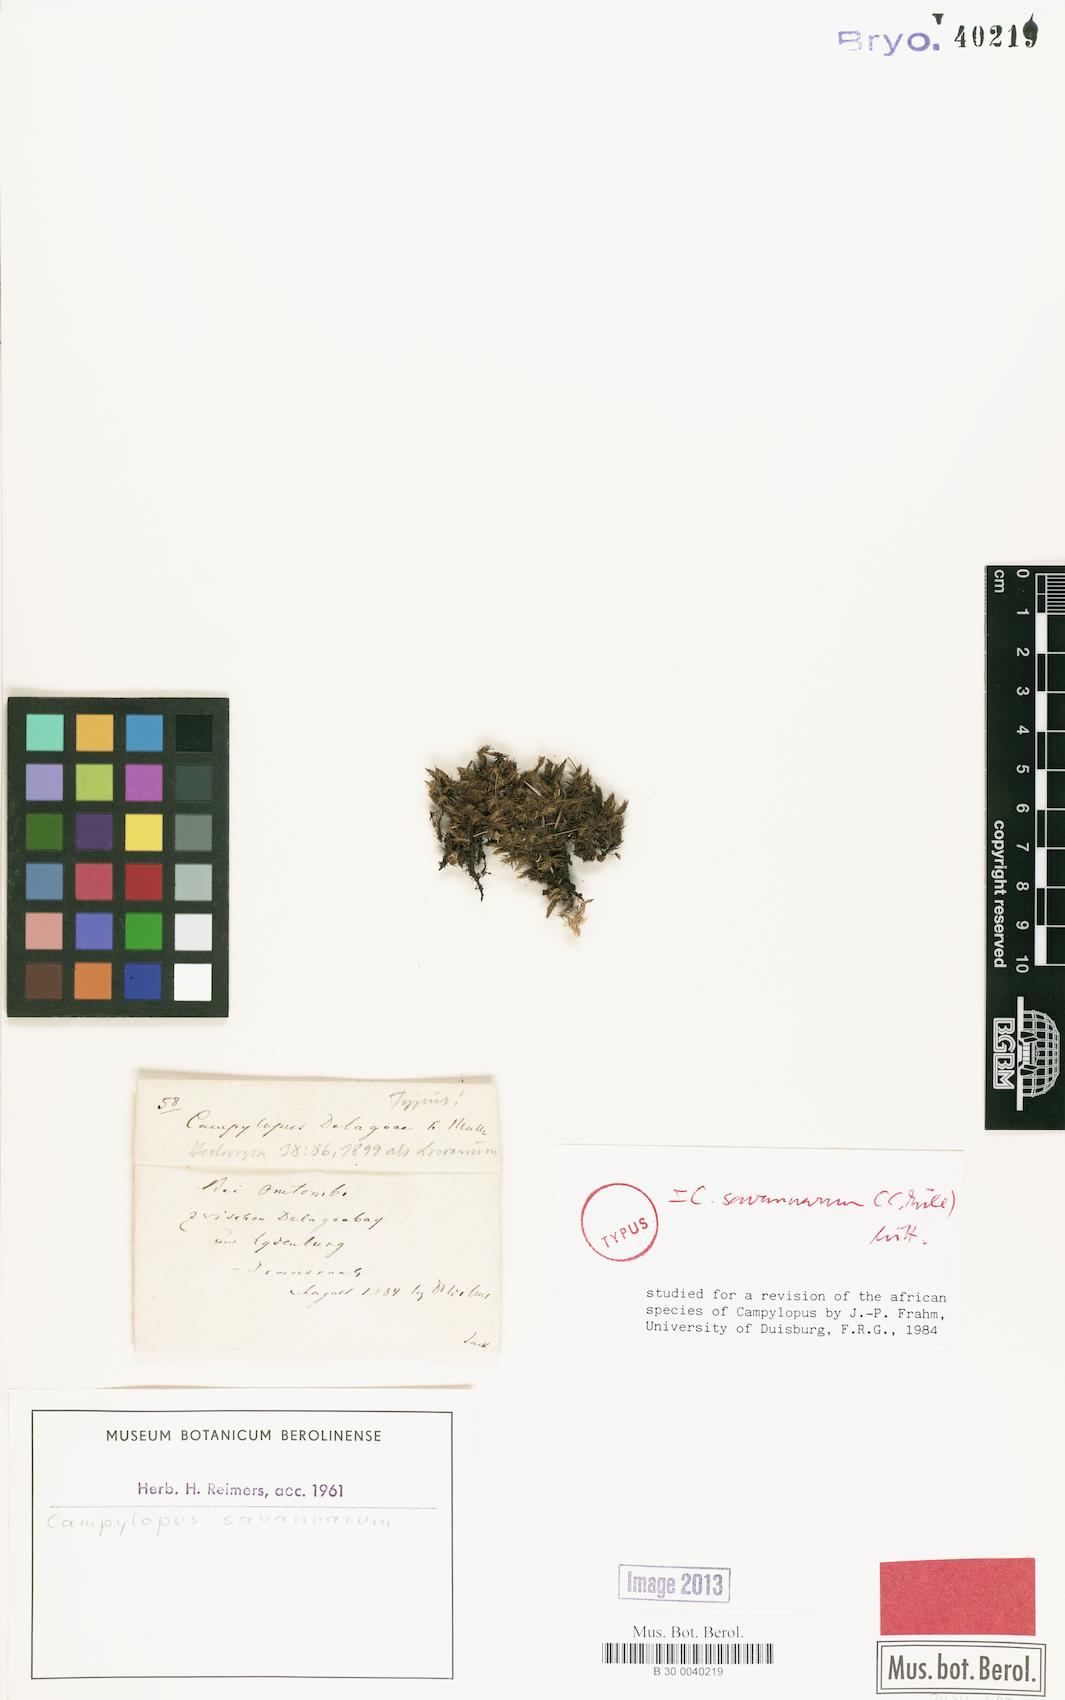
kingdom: Plantae
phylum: Bryophyta
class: Bryopsida
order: Dicranales
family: Leucobryaceae
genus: Campylopus
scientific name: Campylopus savannarum
